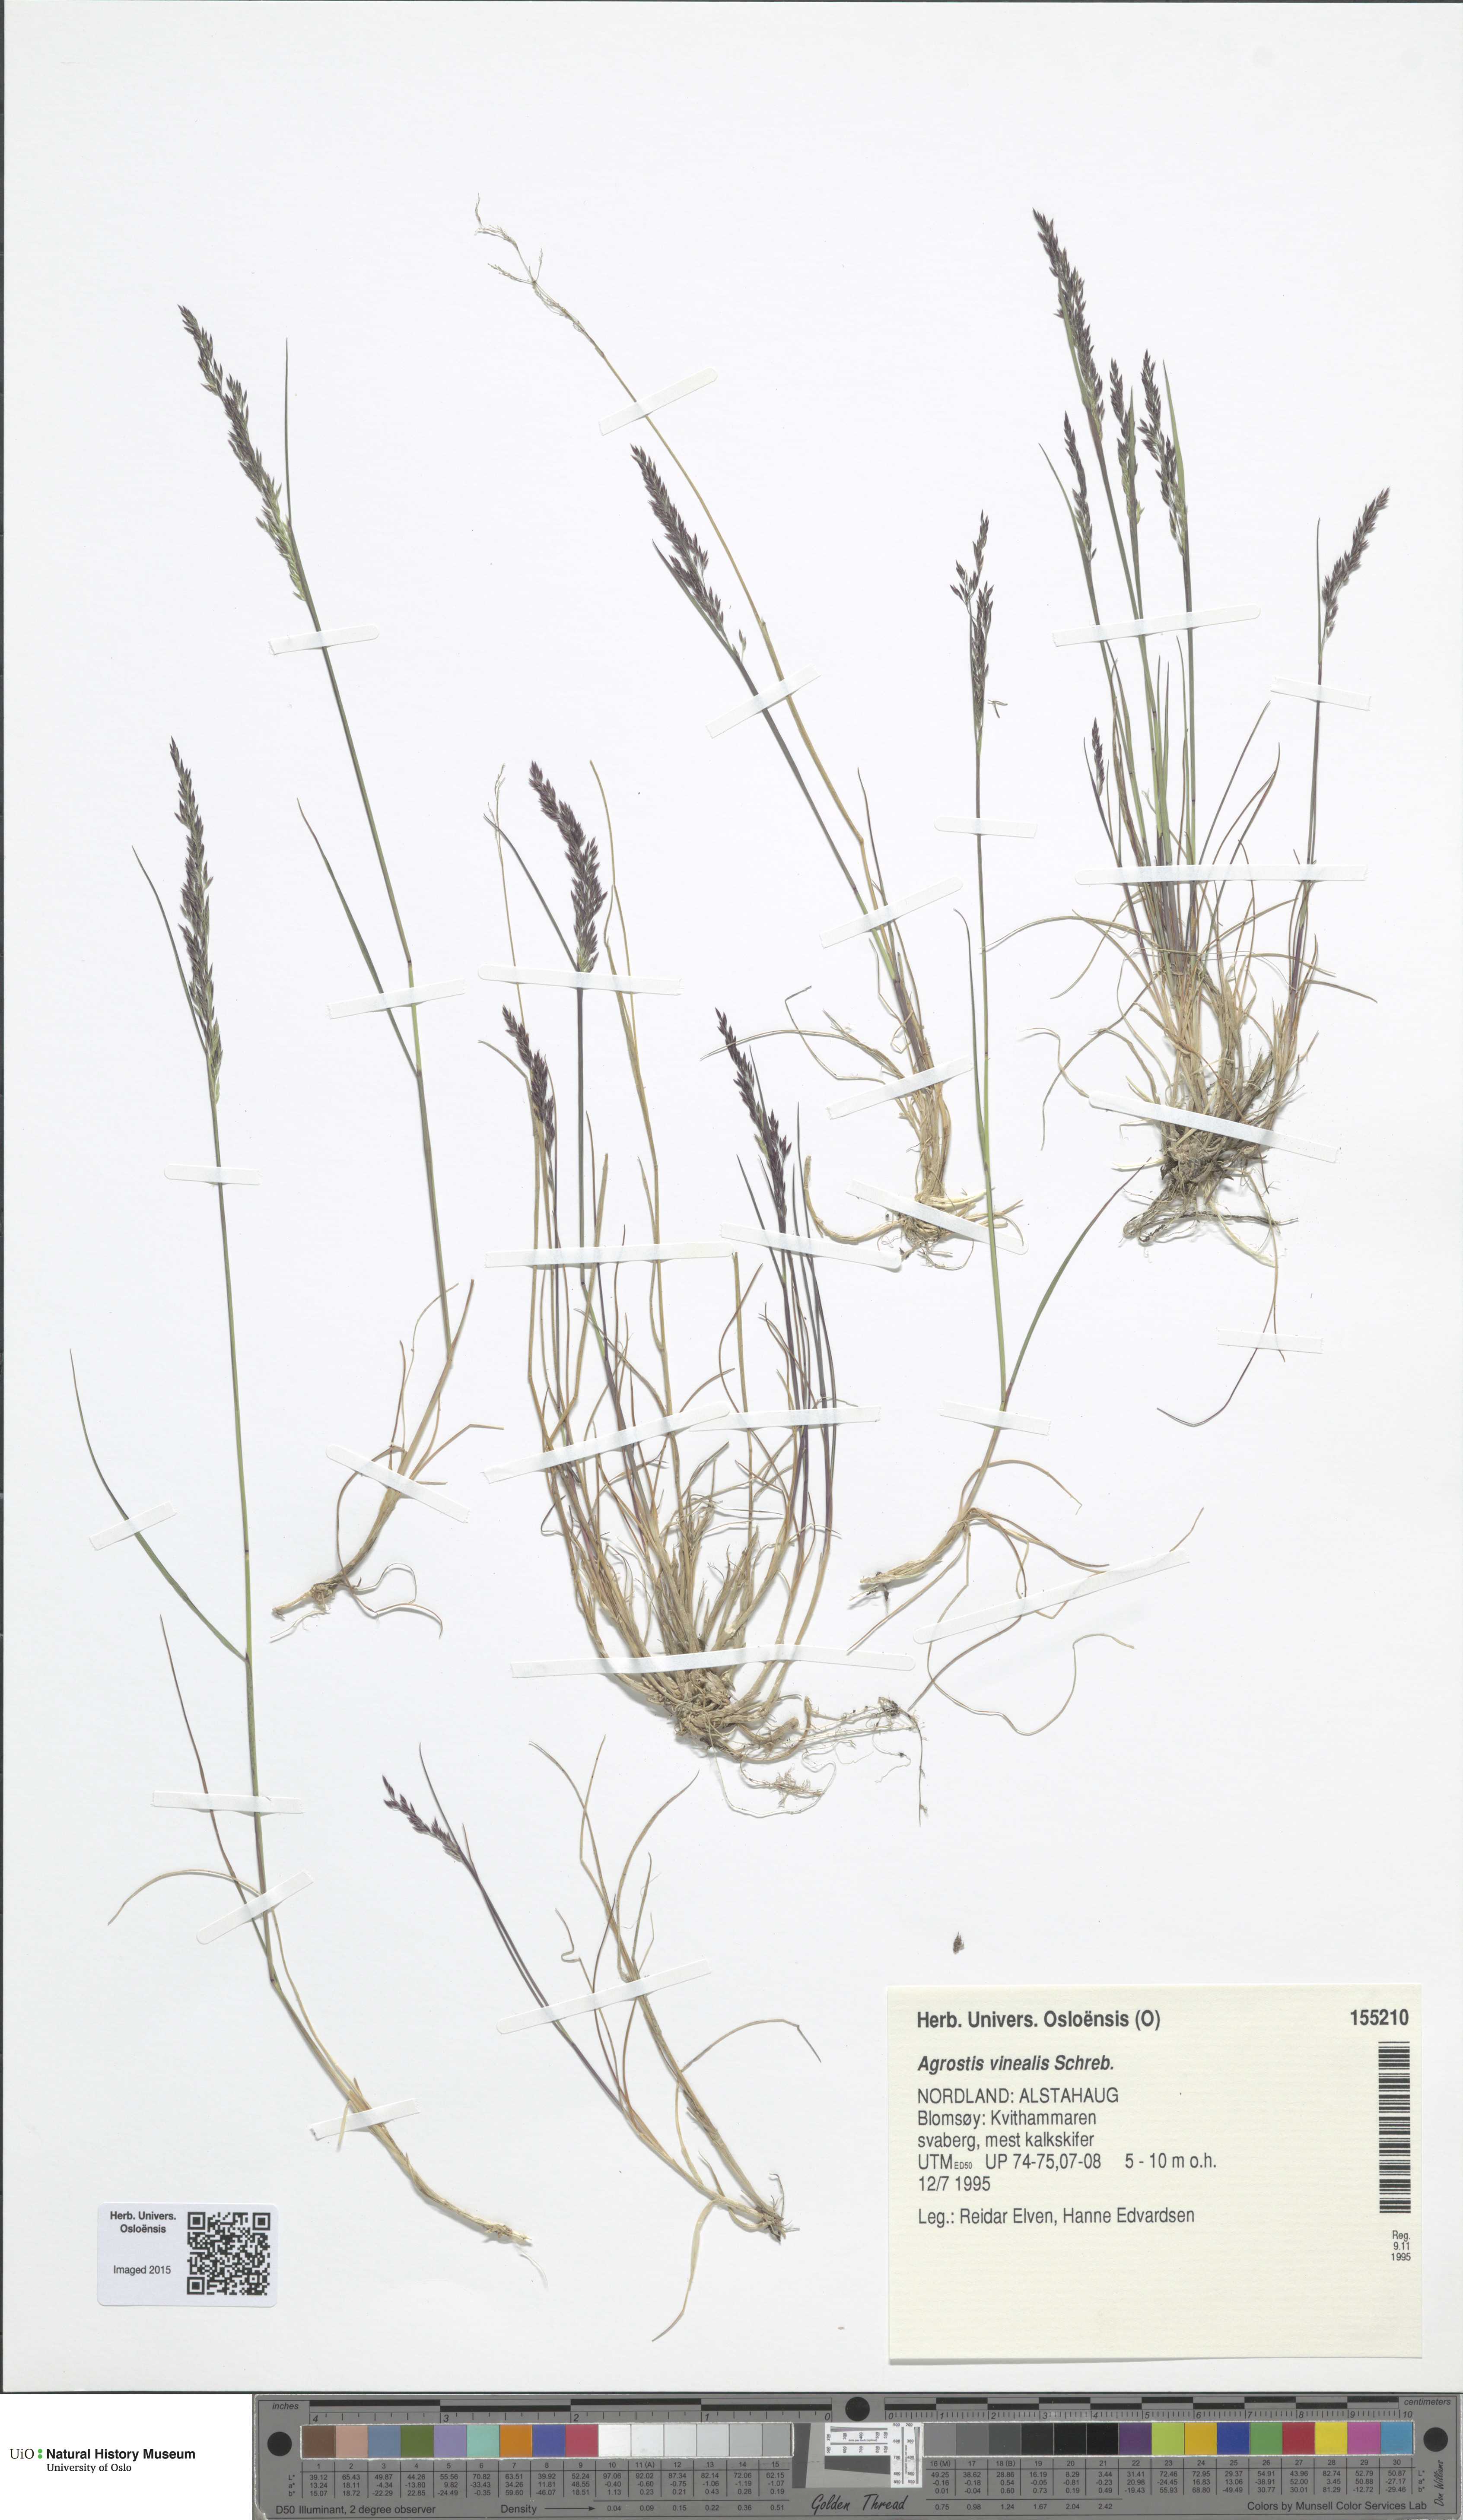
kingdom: Plantae
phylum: Tracheophyta
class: Liliopsida
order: Poales
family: Poaceae
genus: Agrostis
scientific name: Agrostis vinealis
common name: Brown bent
